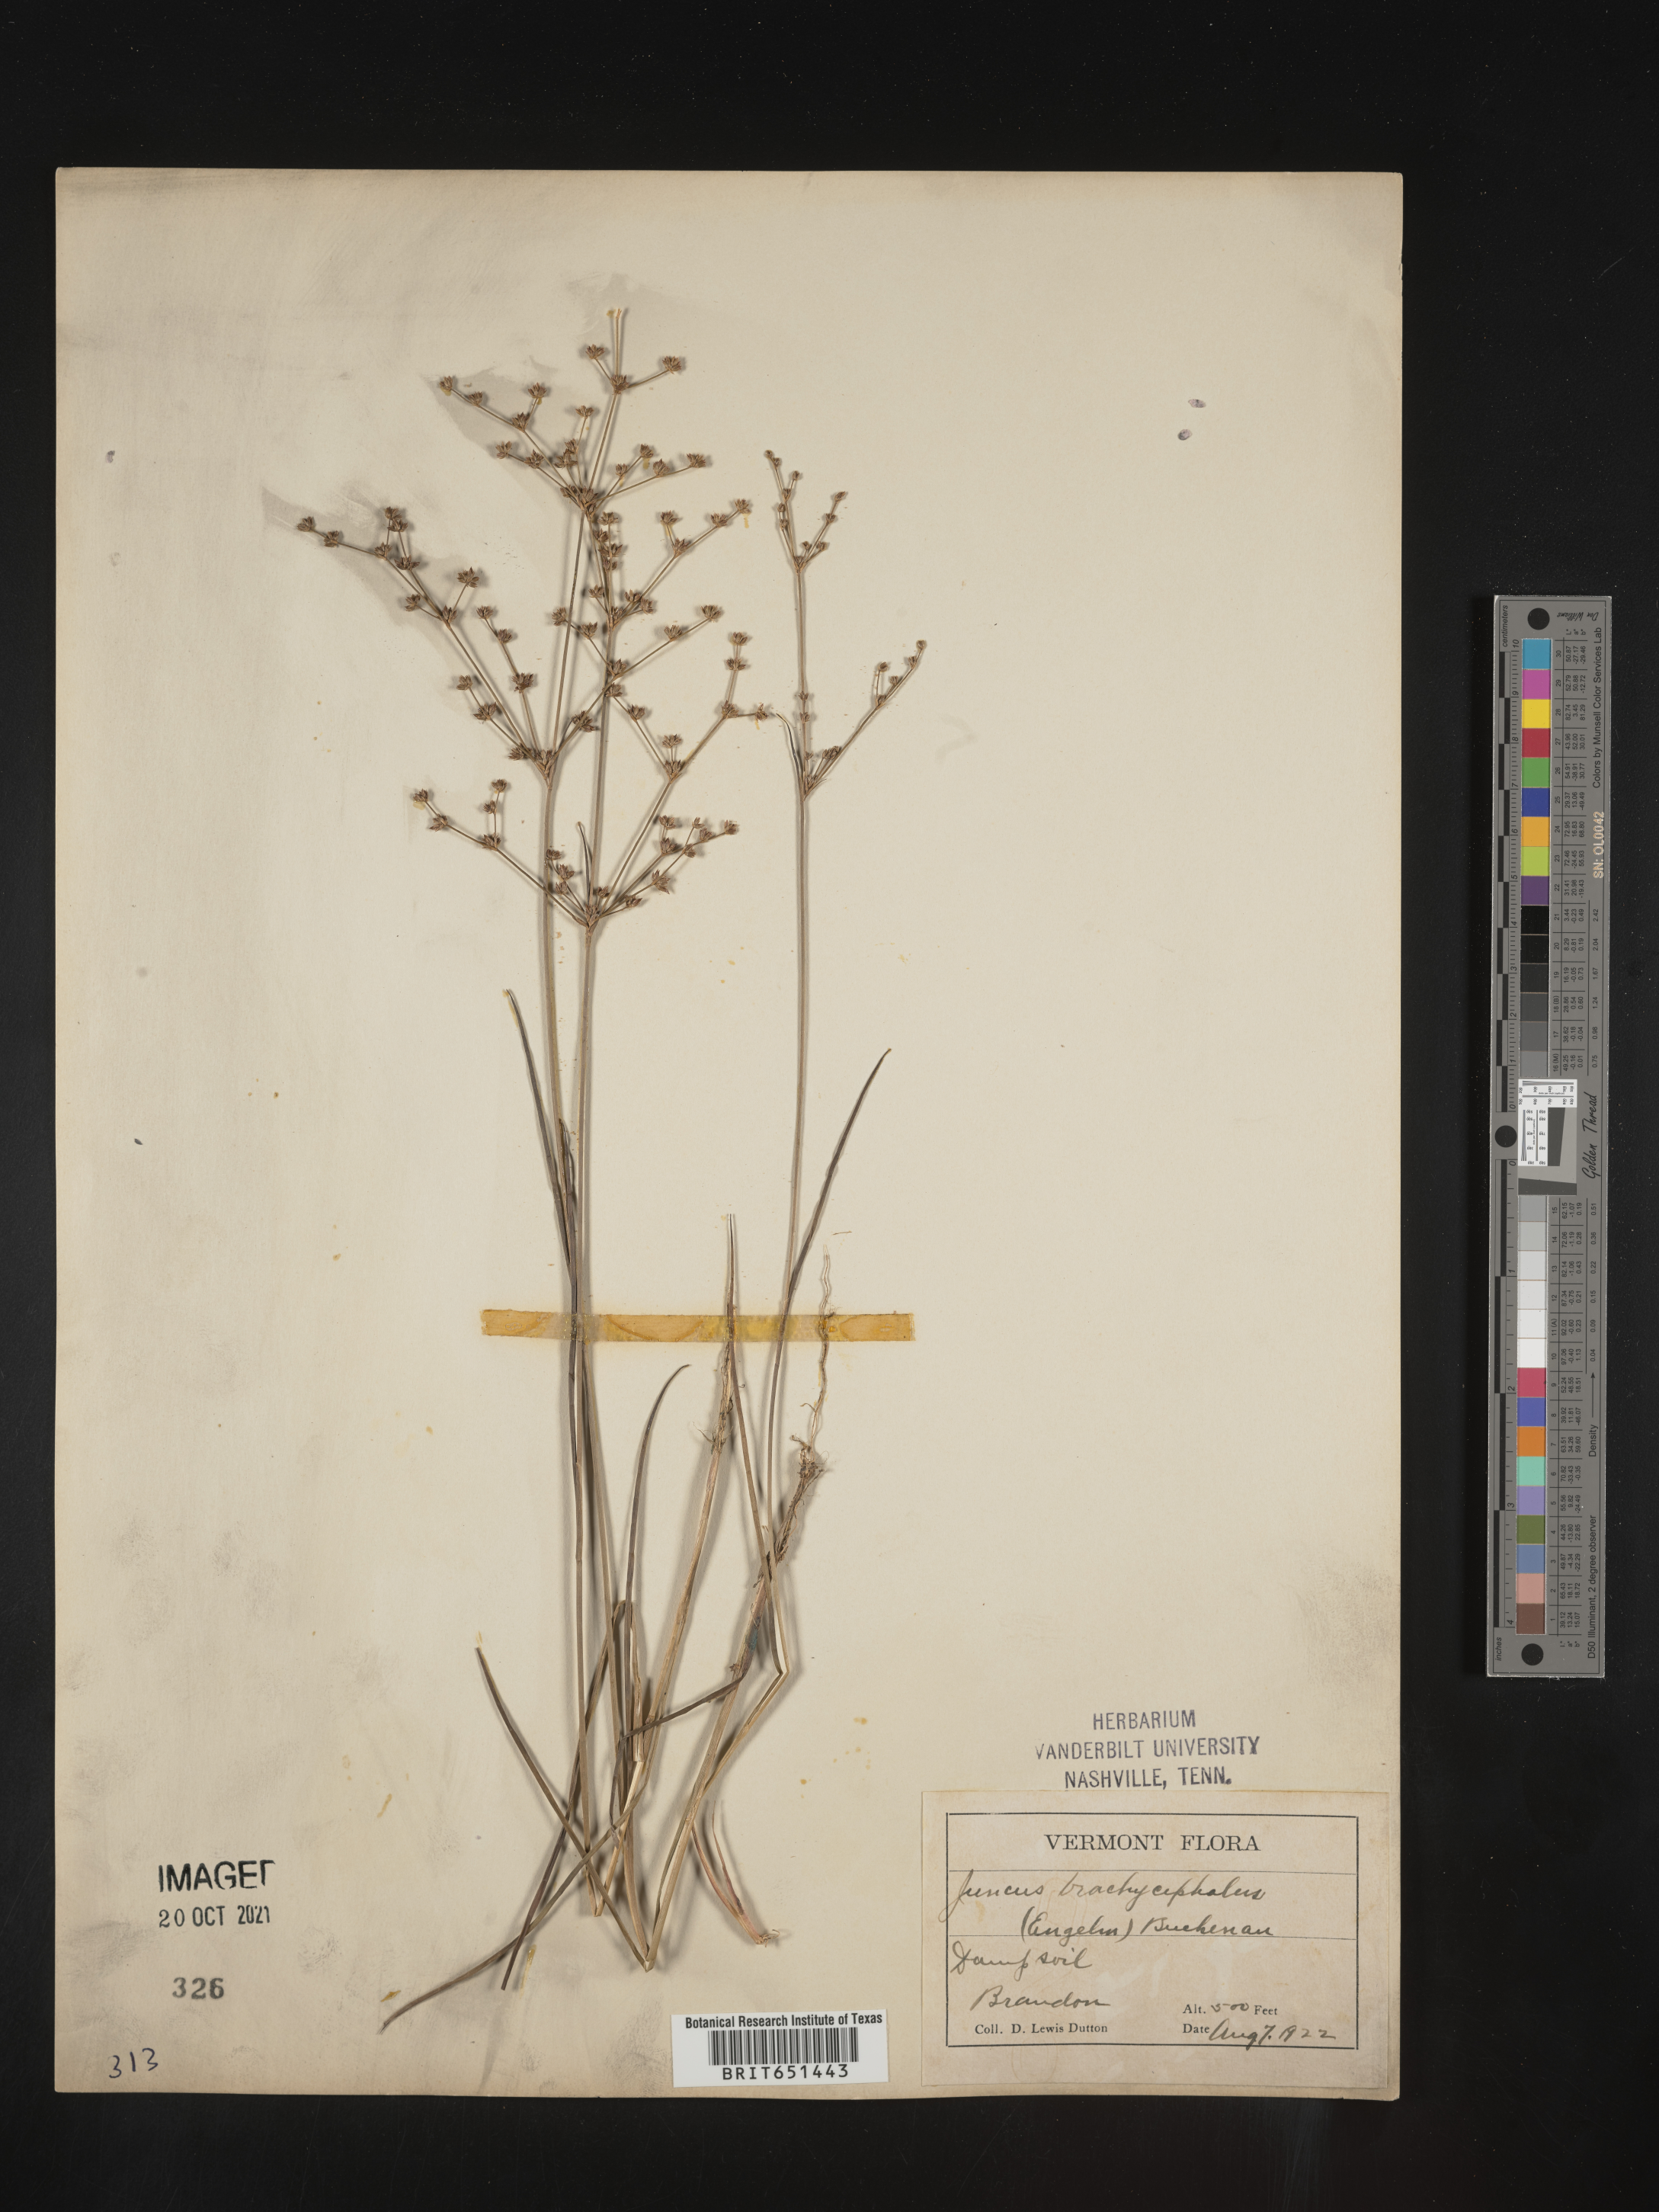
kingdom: Plantae
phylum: Tracheophyta
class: Liliopsida
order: Poales
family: Juncaceae
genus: Juncus
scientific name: Juncus brachycephalus
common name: Short-headed rush
